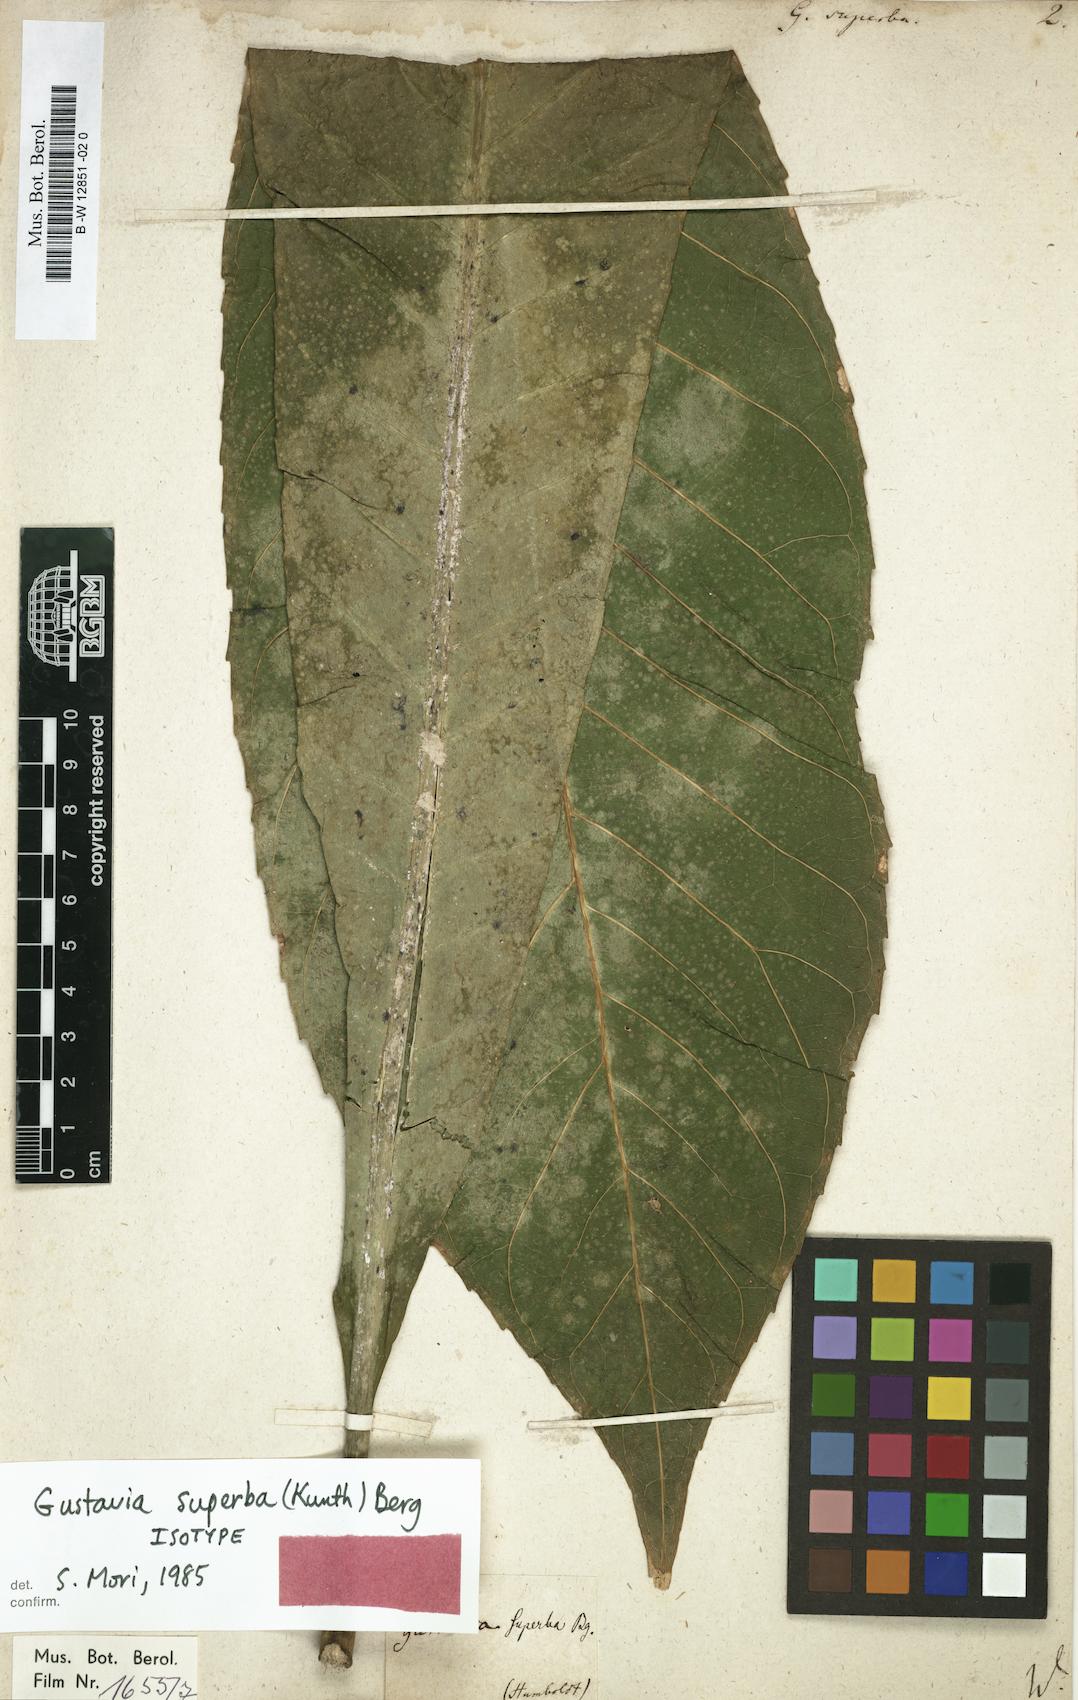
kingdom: Plantae
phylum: Tracheophyta
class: Magnoliopsida
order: Ericales
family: Lecythidaceae
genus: Gustavia
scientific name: Gustavia superba
